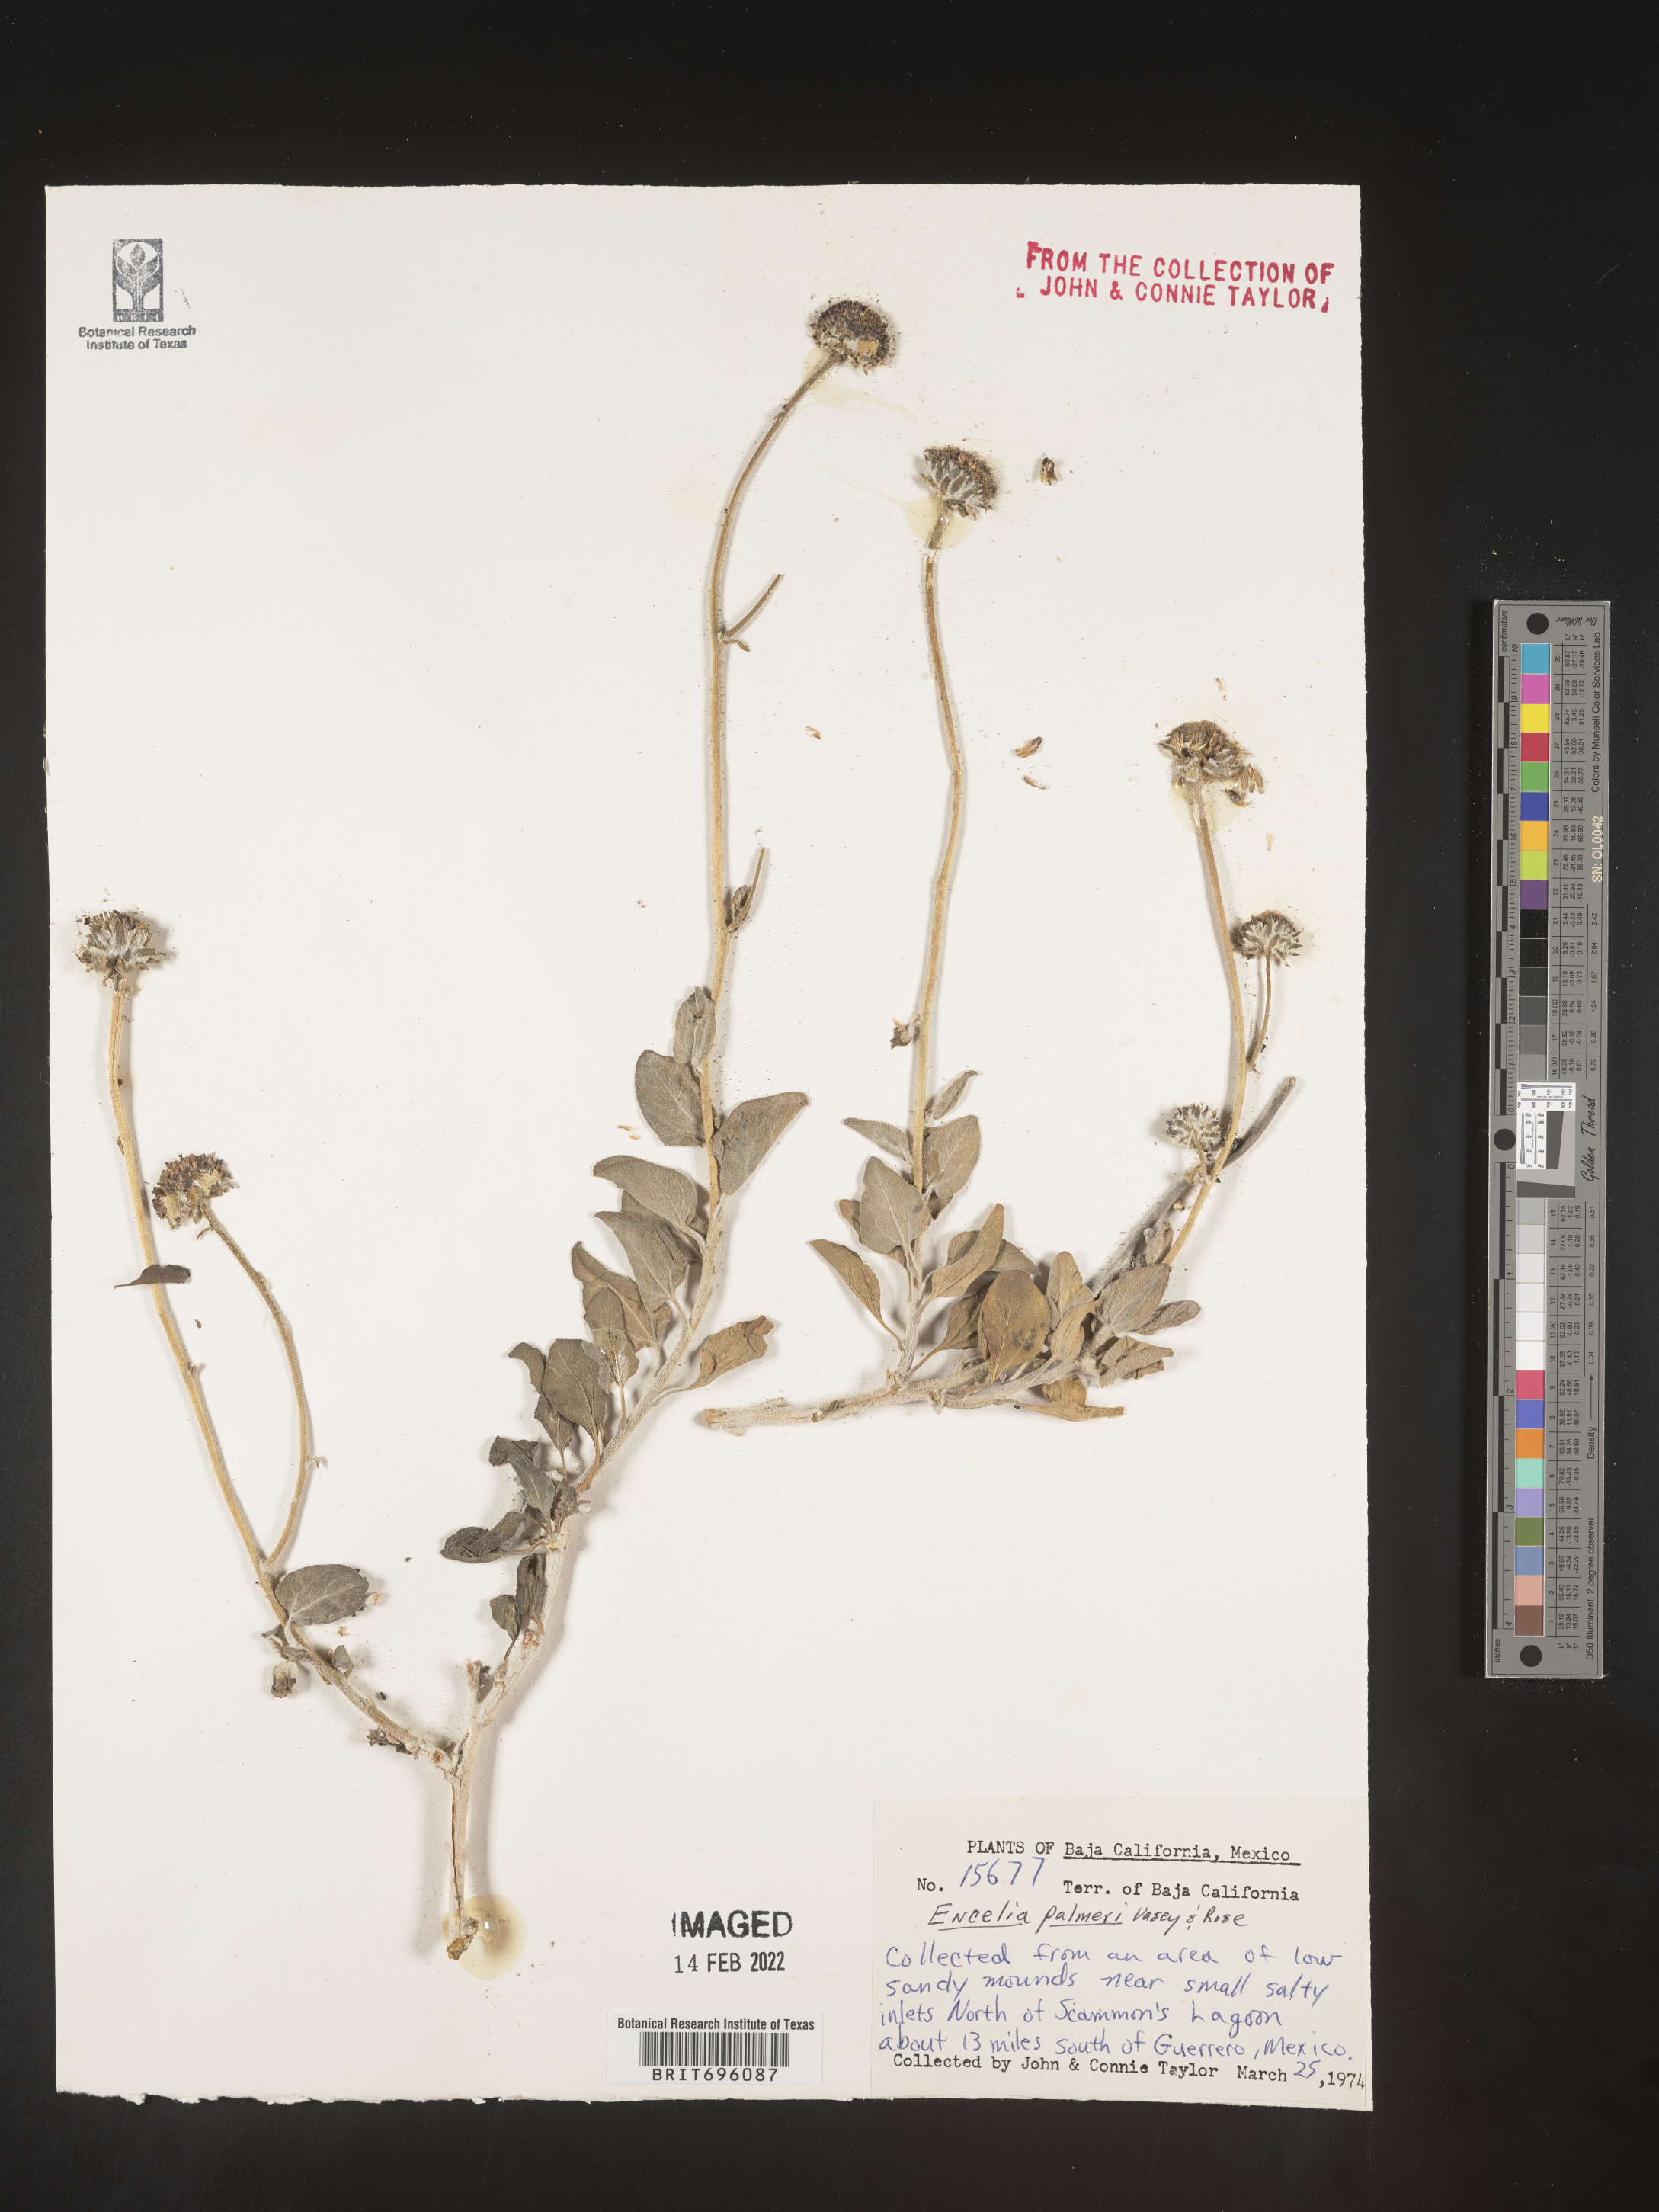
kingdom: Plantae
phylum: Tracheophyta
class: Magnoliopsida
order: Asterales
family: Asteraceae
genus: Encelia
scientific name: Encelia
